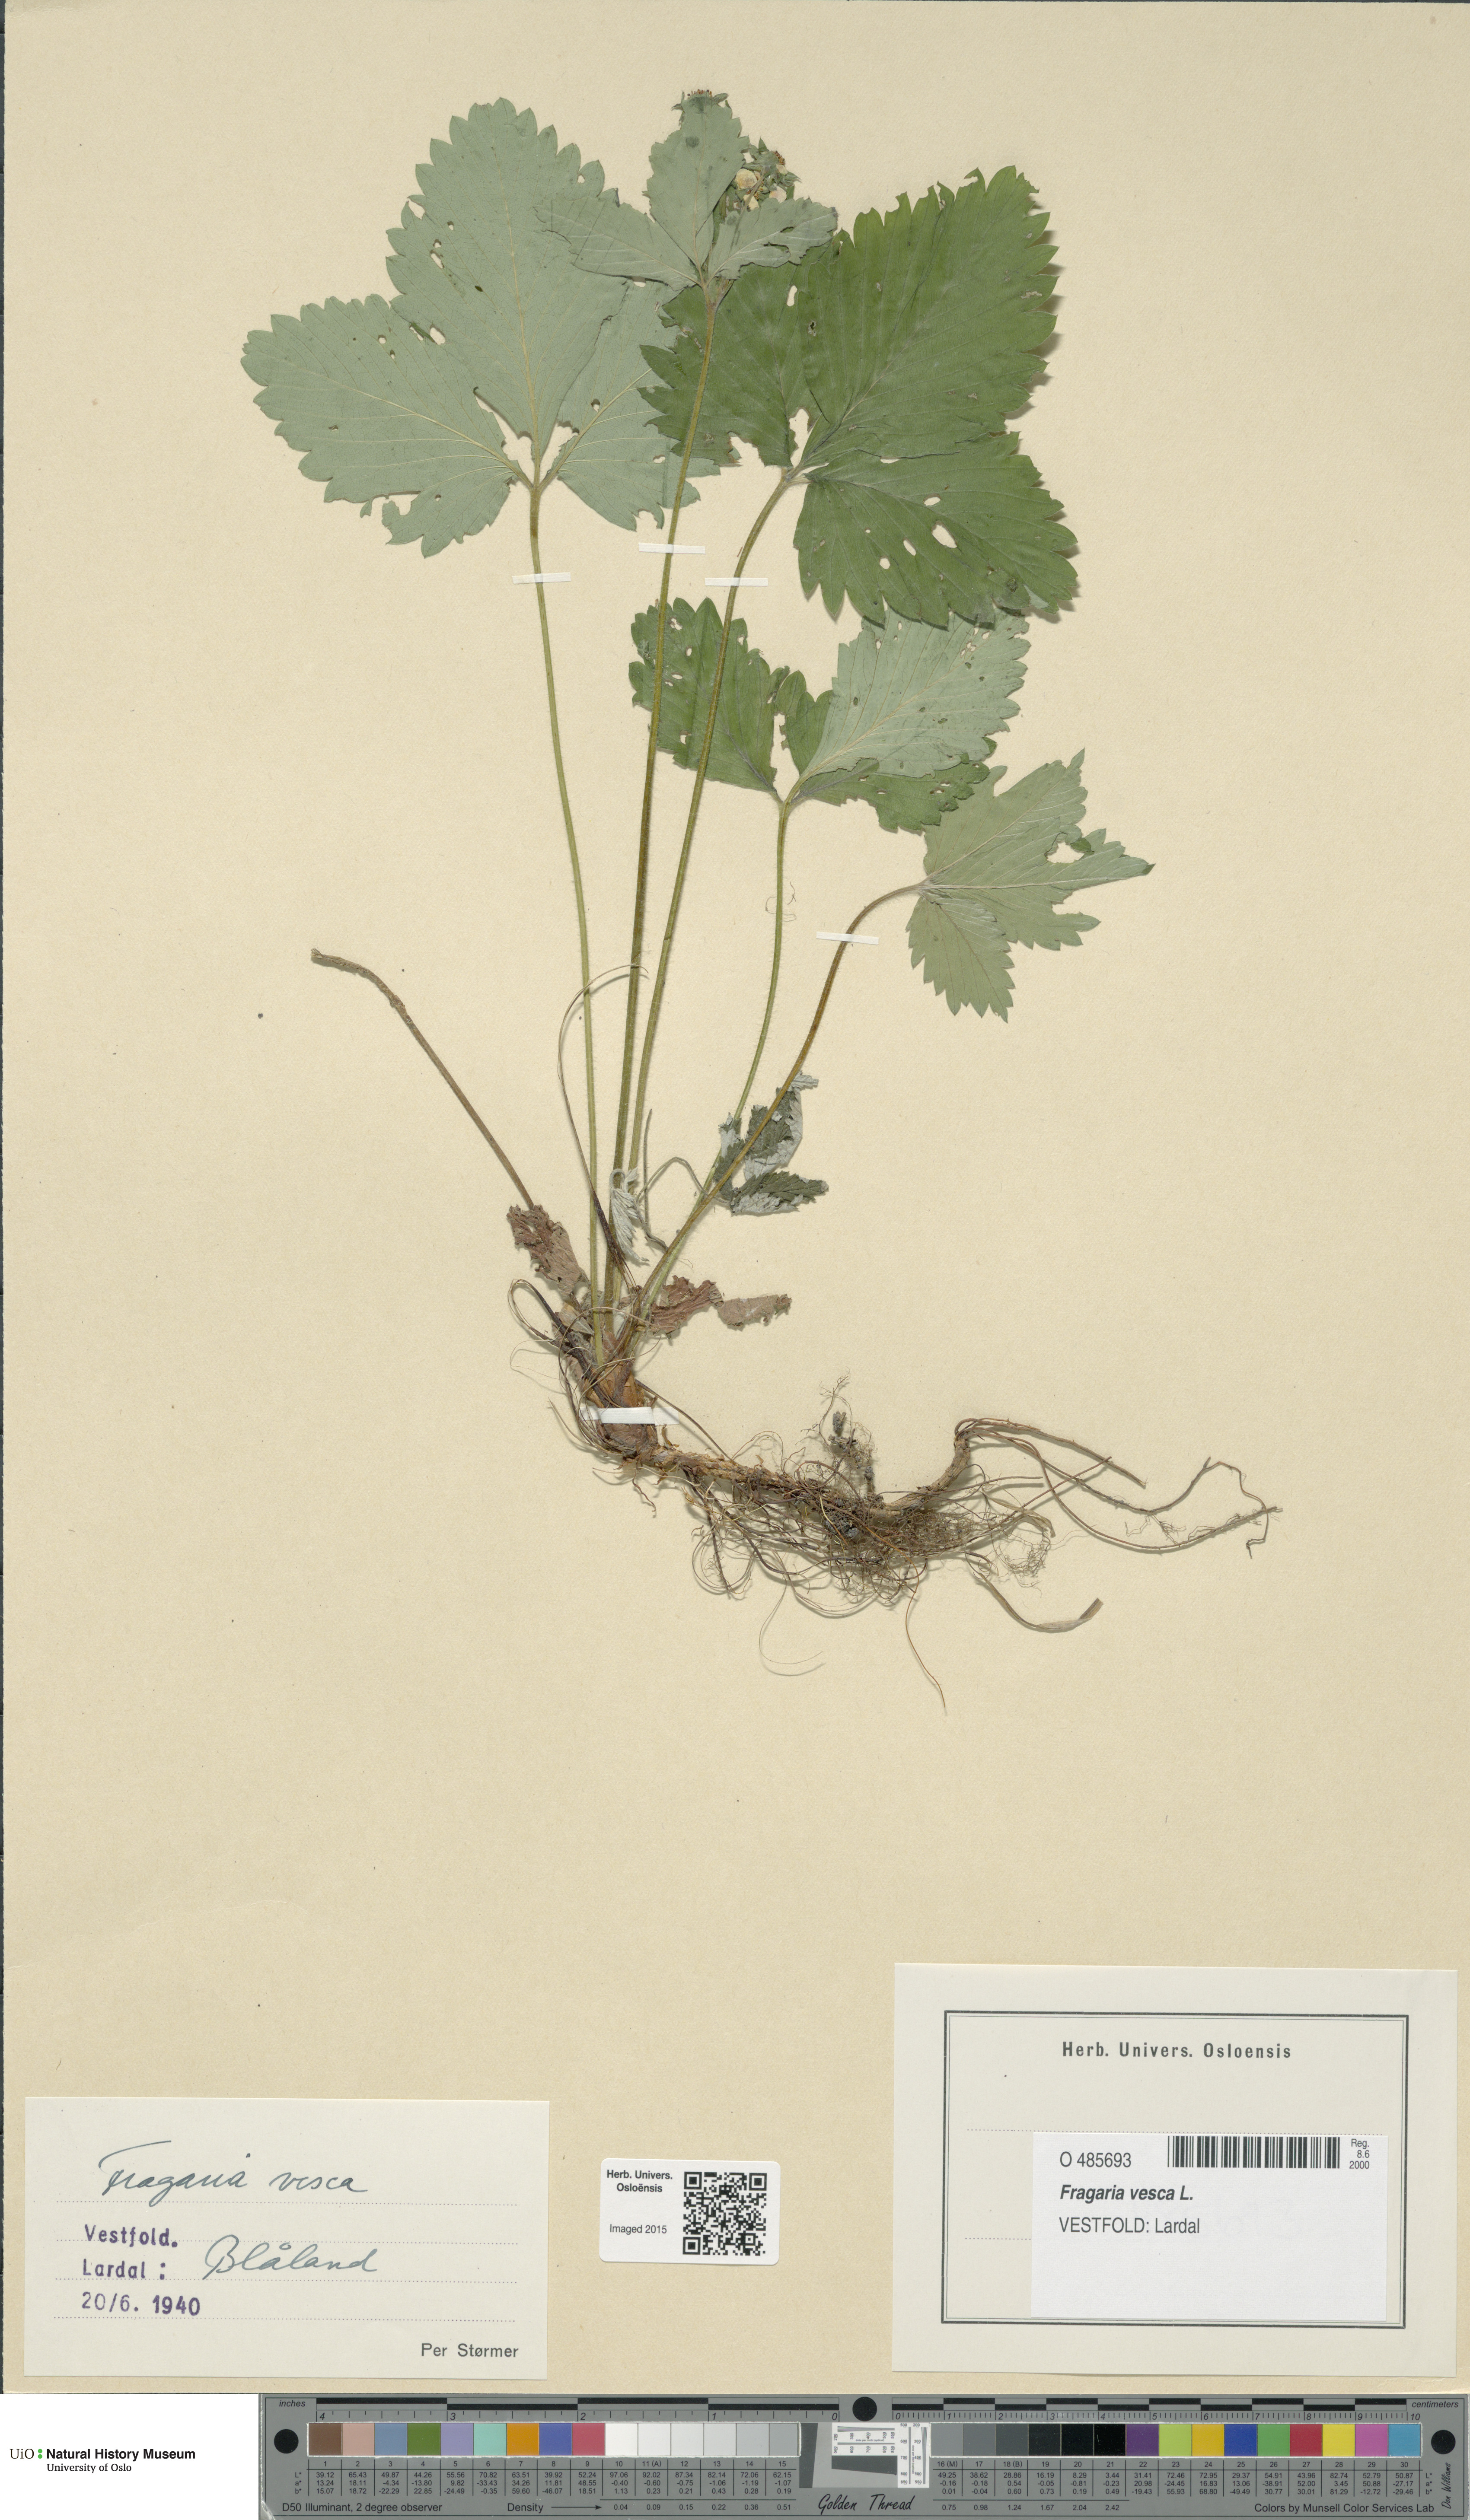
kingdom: Plantae
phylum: Tracheophyta
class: Magnoliopsida
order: Rosales
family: Rosaceae
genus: Fragaria
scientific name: Fragaria vesca
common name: Wild strawberry
